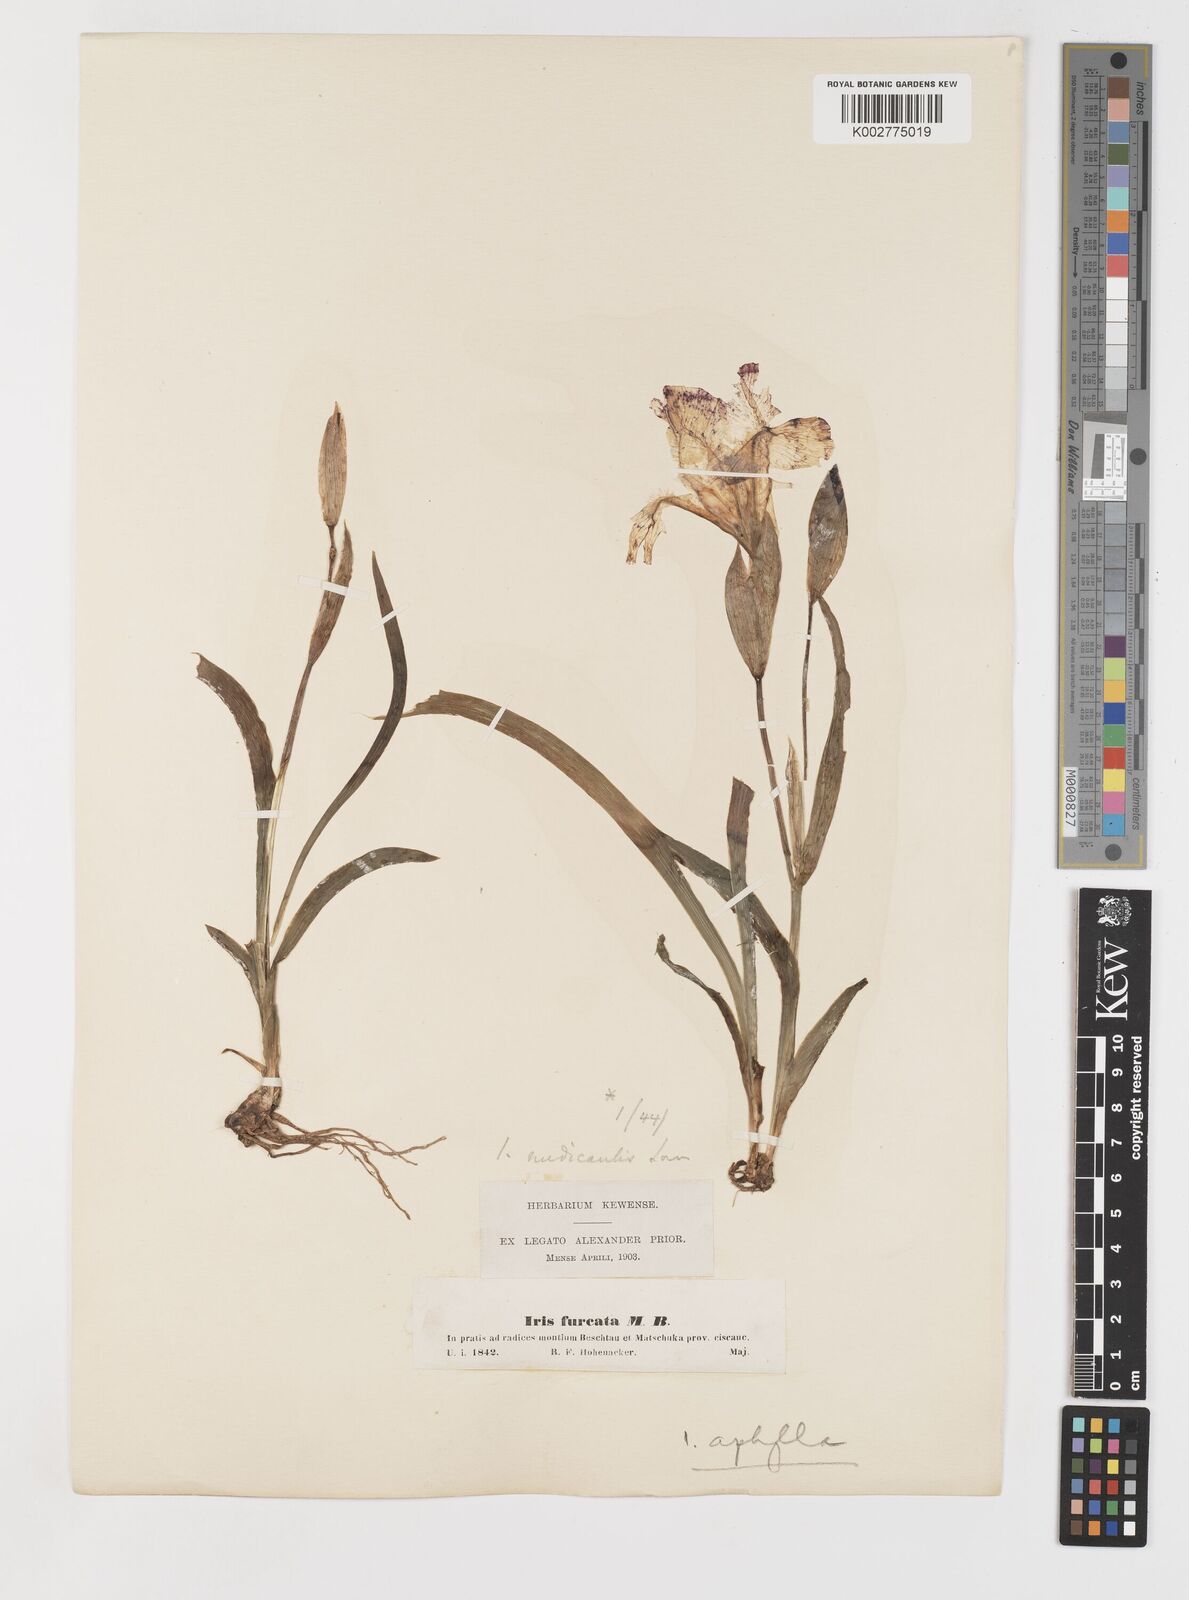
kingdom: Plantae
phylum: Tracheophyta
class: Liliopsida
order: Asparagales
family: Iridaceae
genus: Iris
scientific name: Iris aphylla
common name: Stool iris
